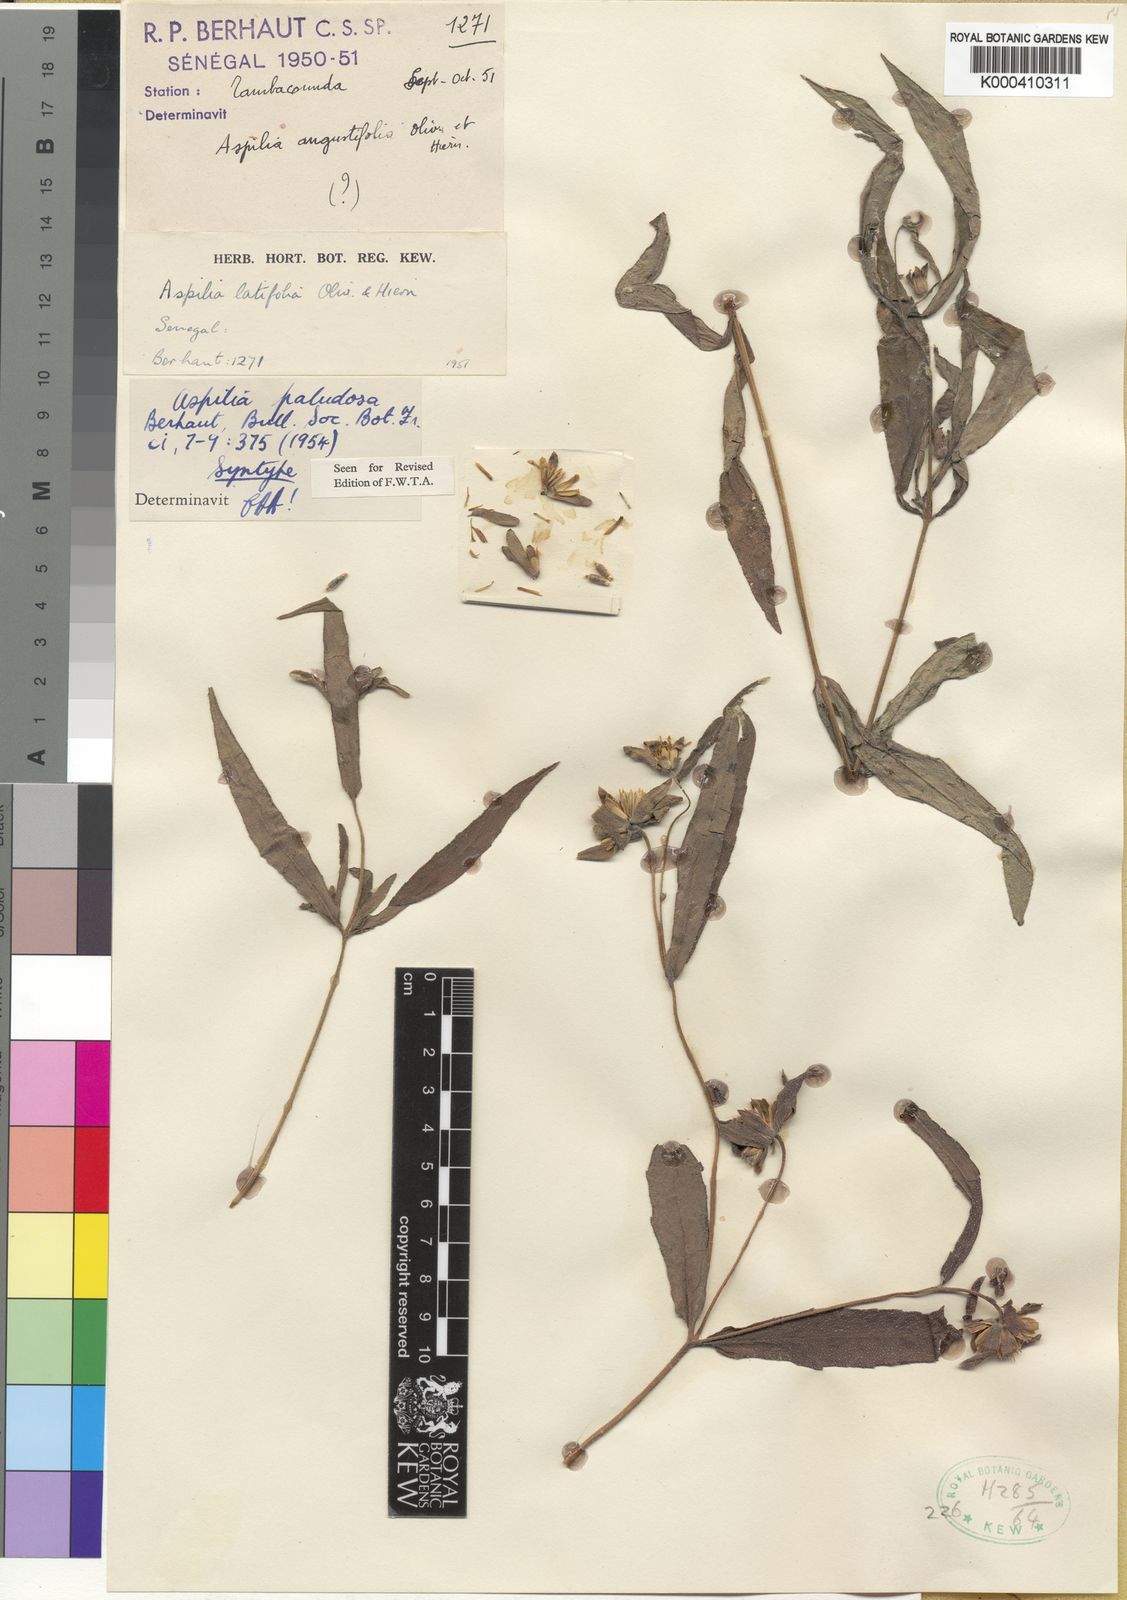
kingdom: Plantae
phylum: Tracheophyta
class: Magnoliopsida
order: Asterales
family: Asteraceae
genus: Aspilia
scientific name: Aspilia angustifolia
